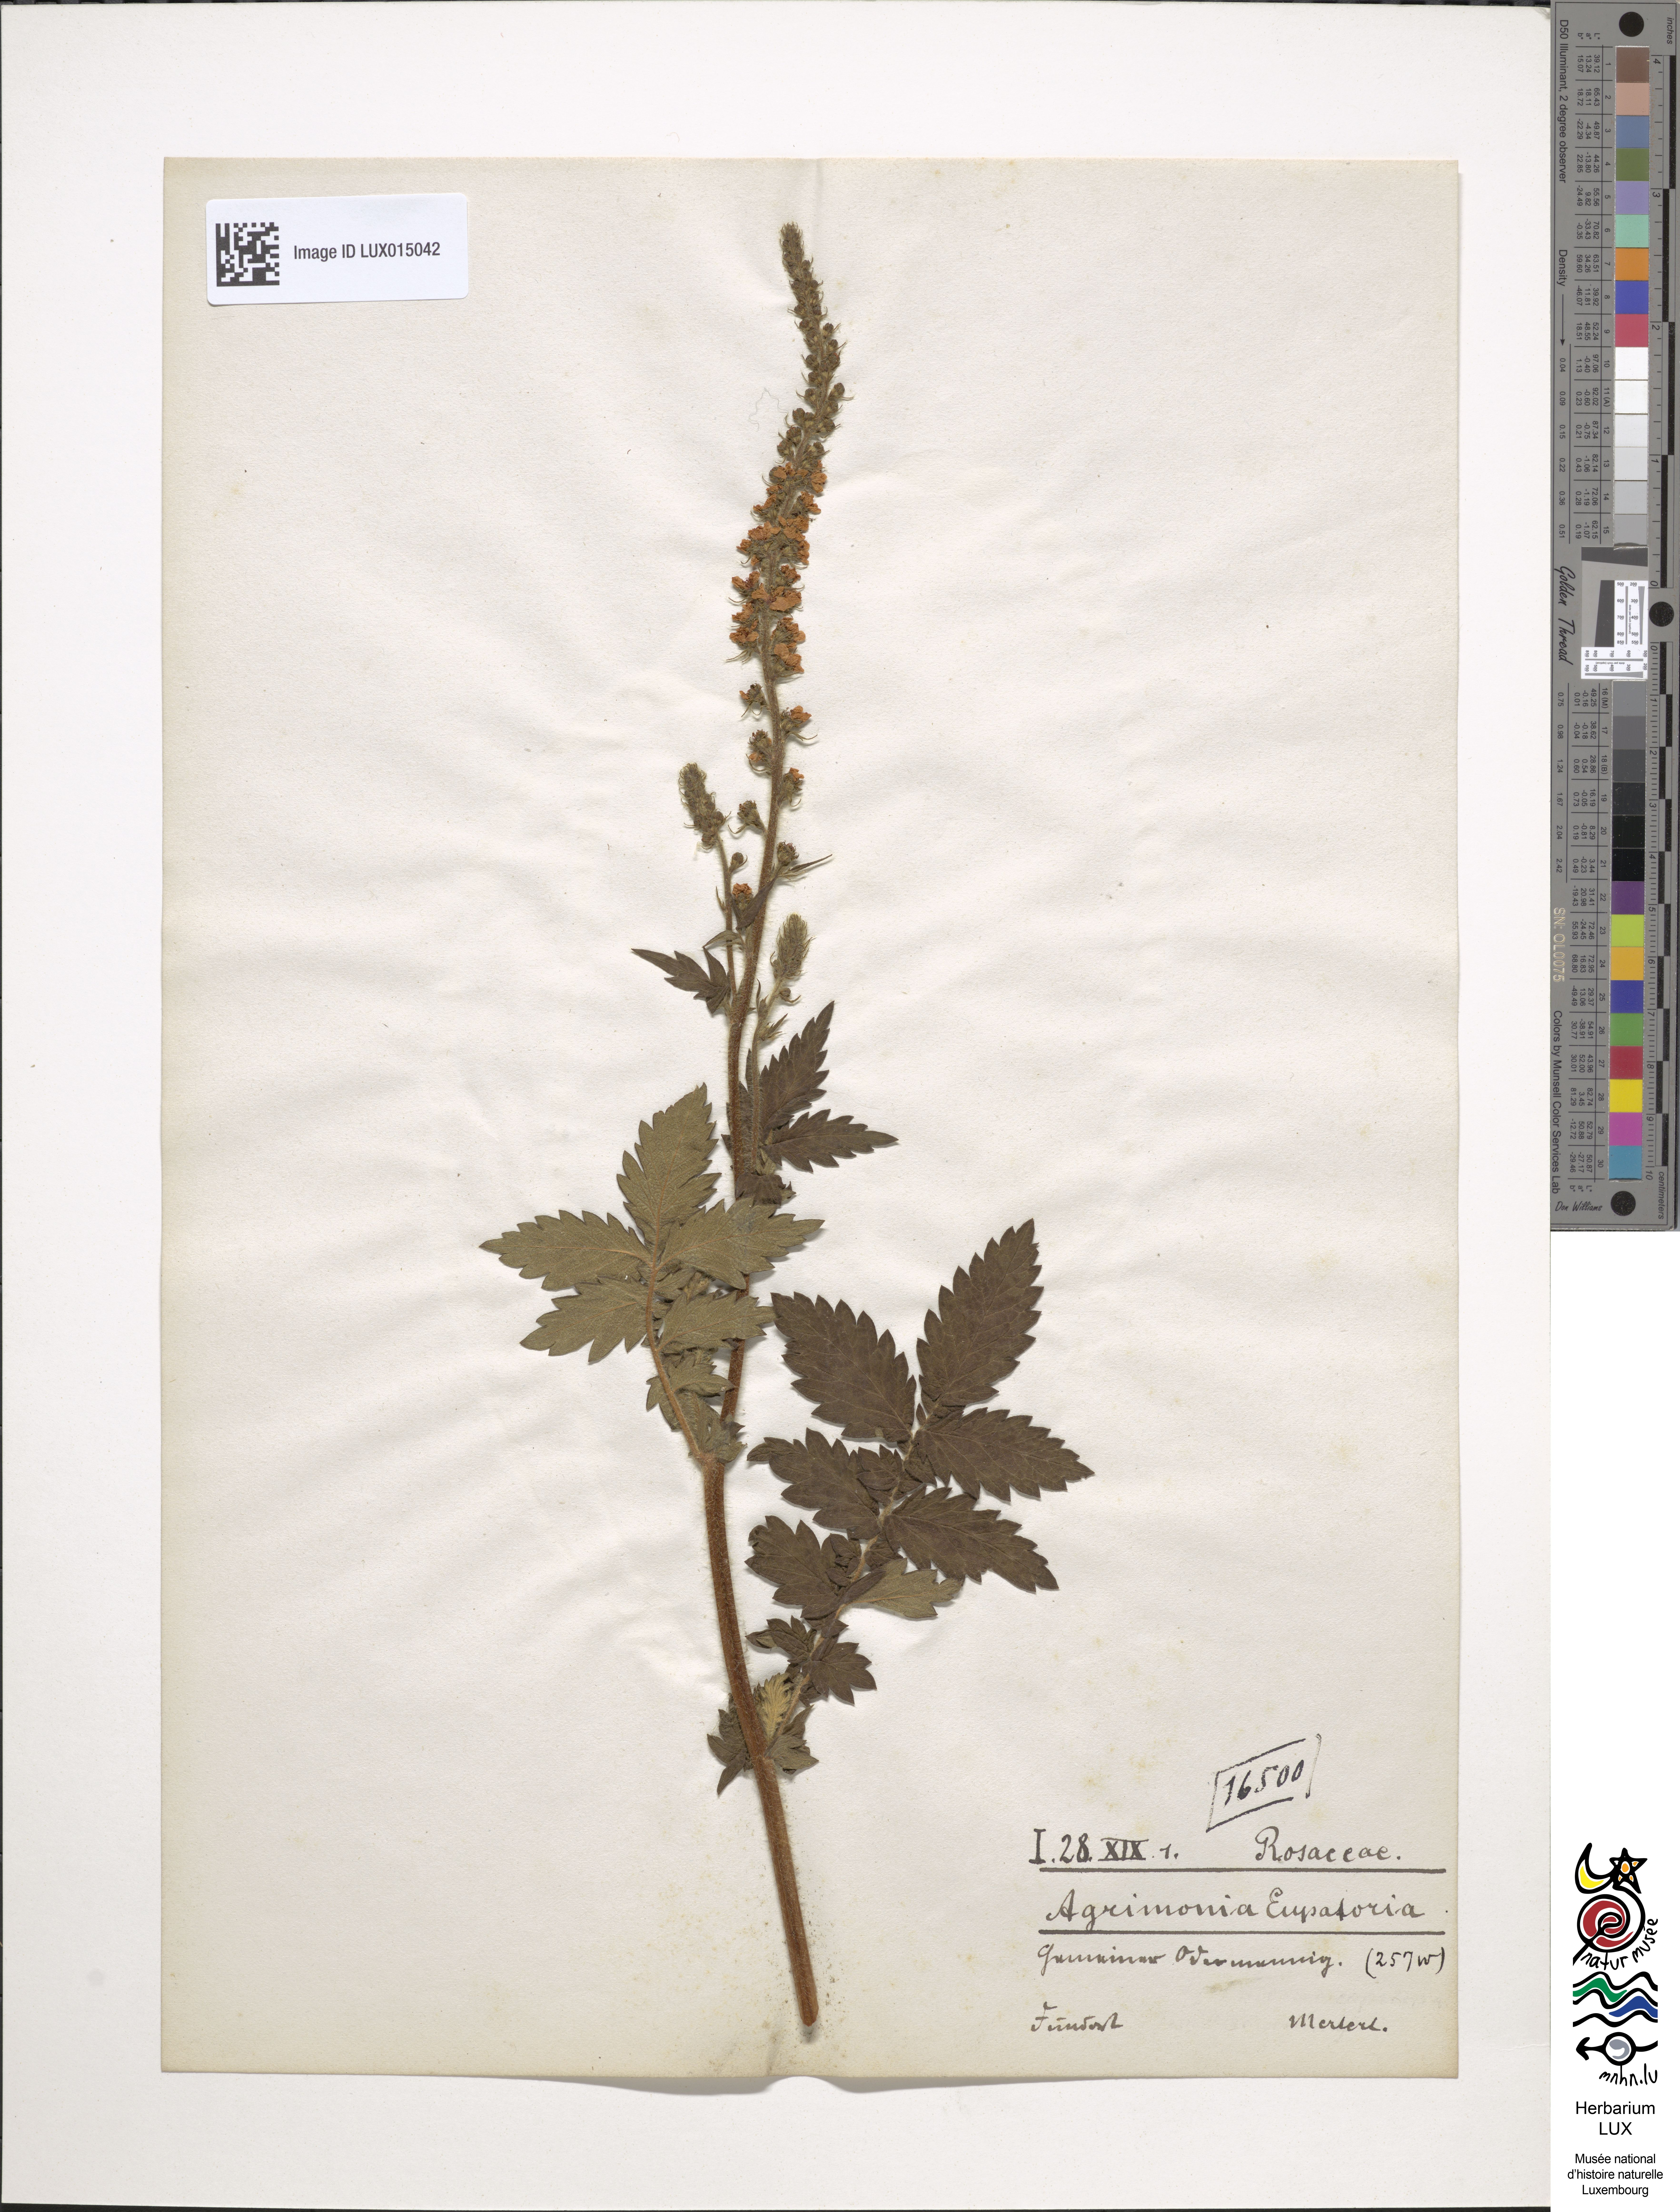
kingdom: Plantae
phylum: Tracheophyta
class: Magnoliopsida
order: Rosales
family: Rosaceae
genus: Agrimonia
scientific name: Agrimonia eupatoria
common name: Agrimony
